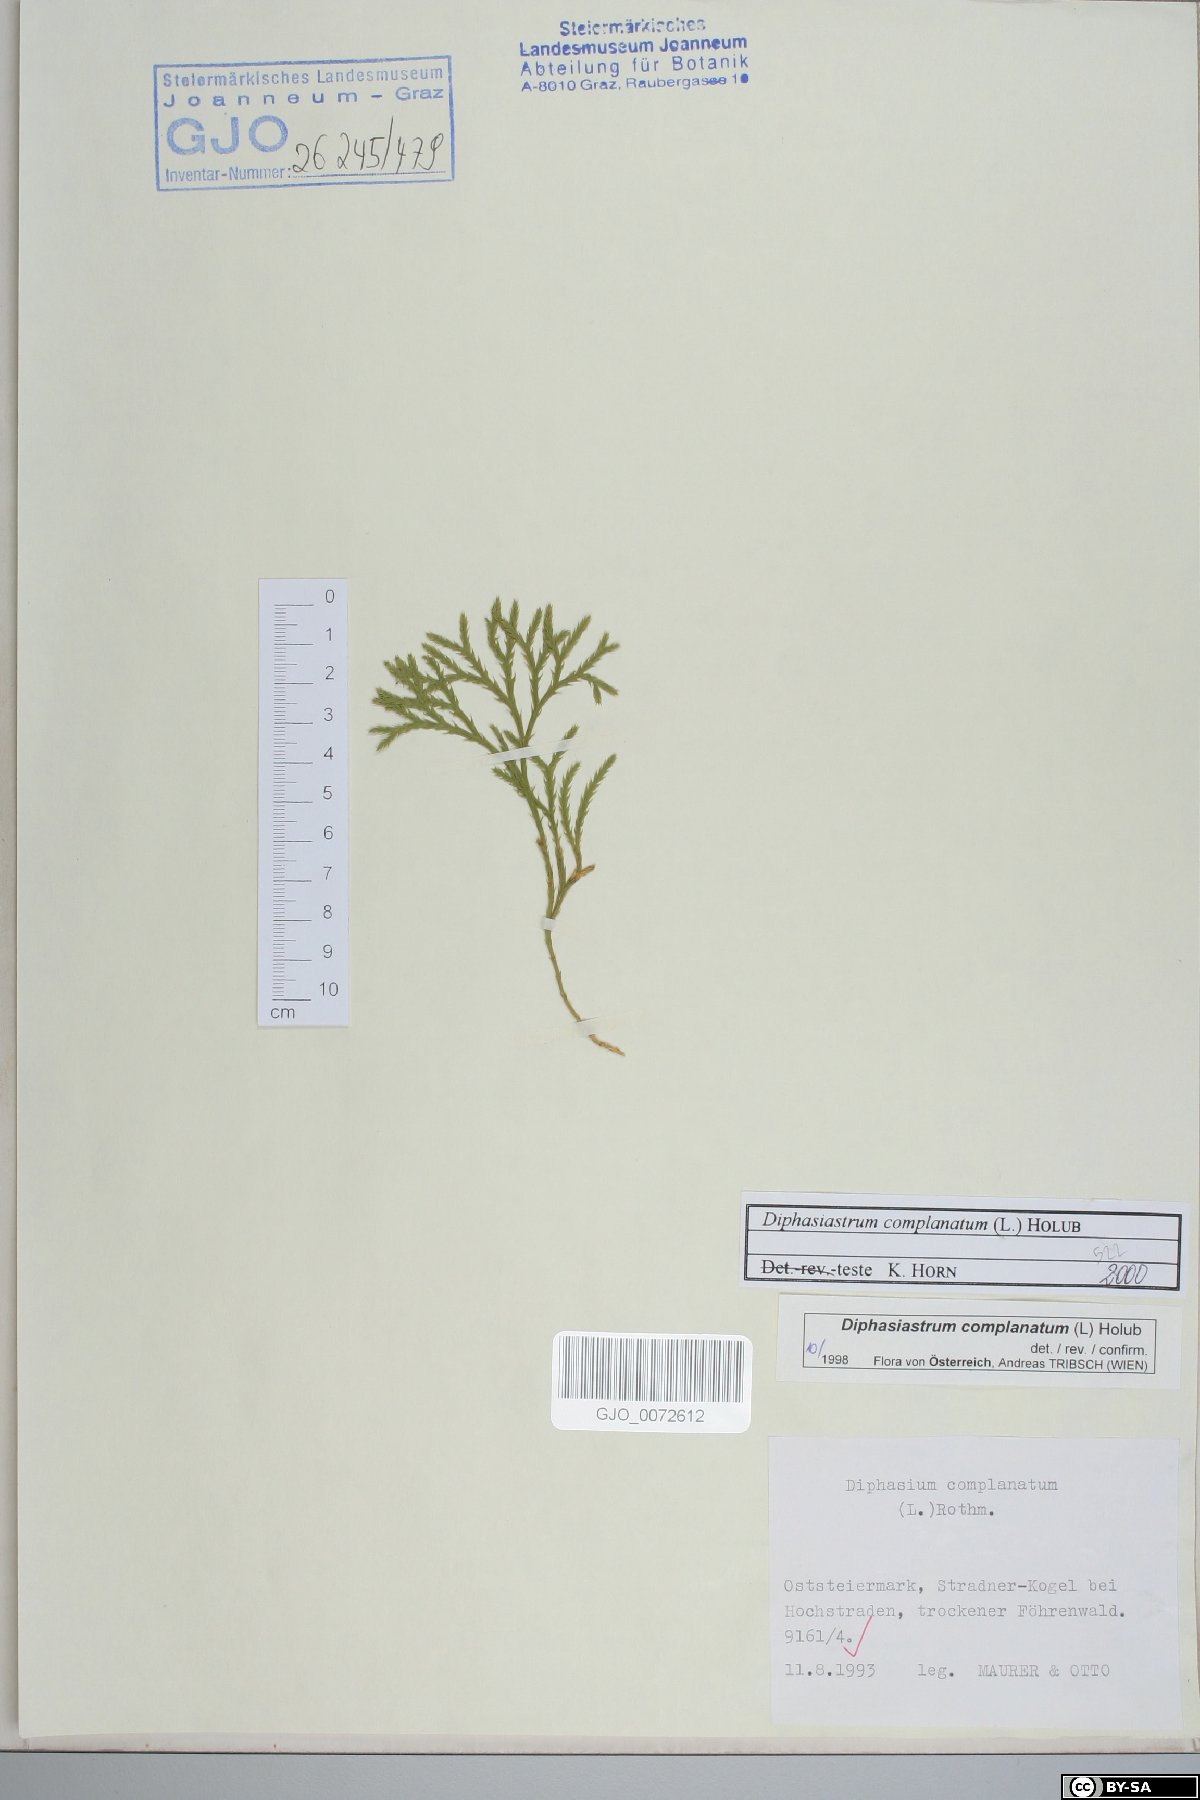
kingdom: Plantae
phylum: Tracheophyta
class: Lycopodiopsida
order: Lycopodiales
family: Lycopodiaceae
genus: Diphasiastrum
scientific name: Diphasiastrum complanatum
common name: Northern running-pine
